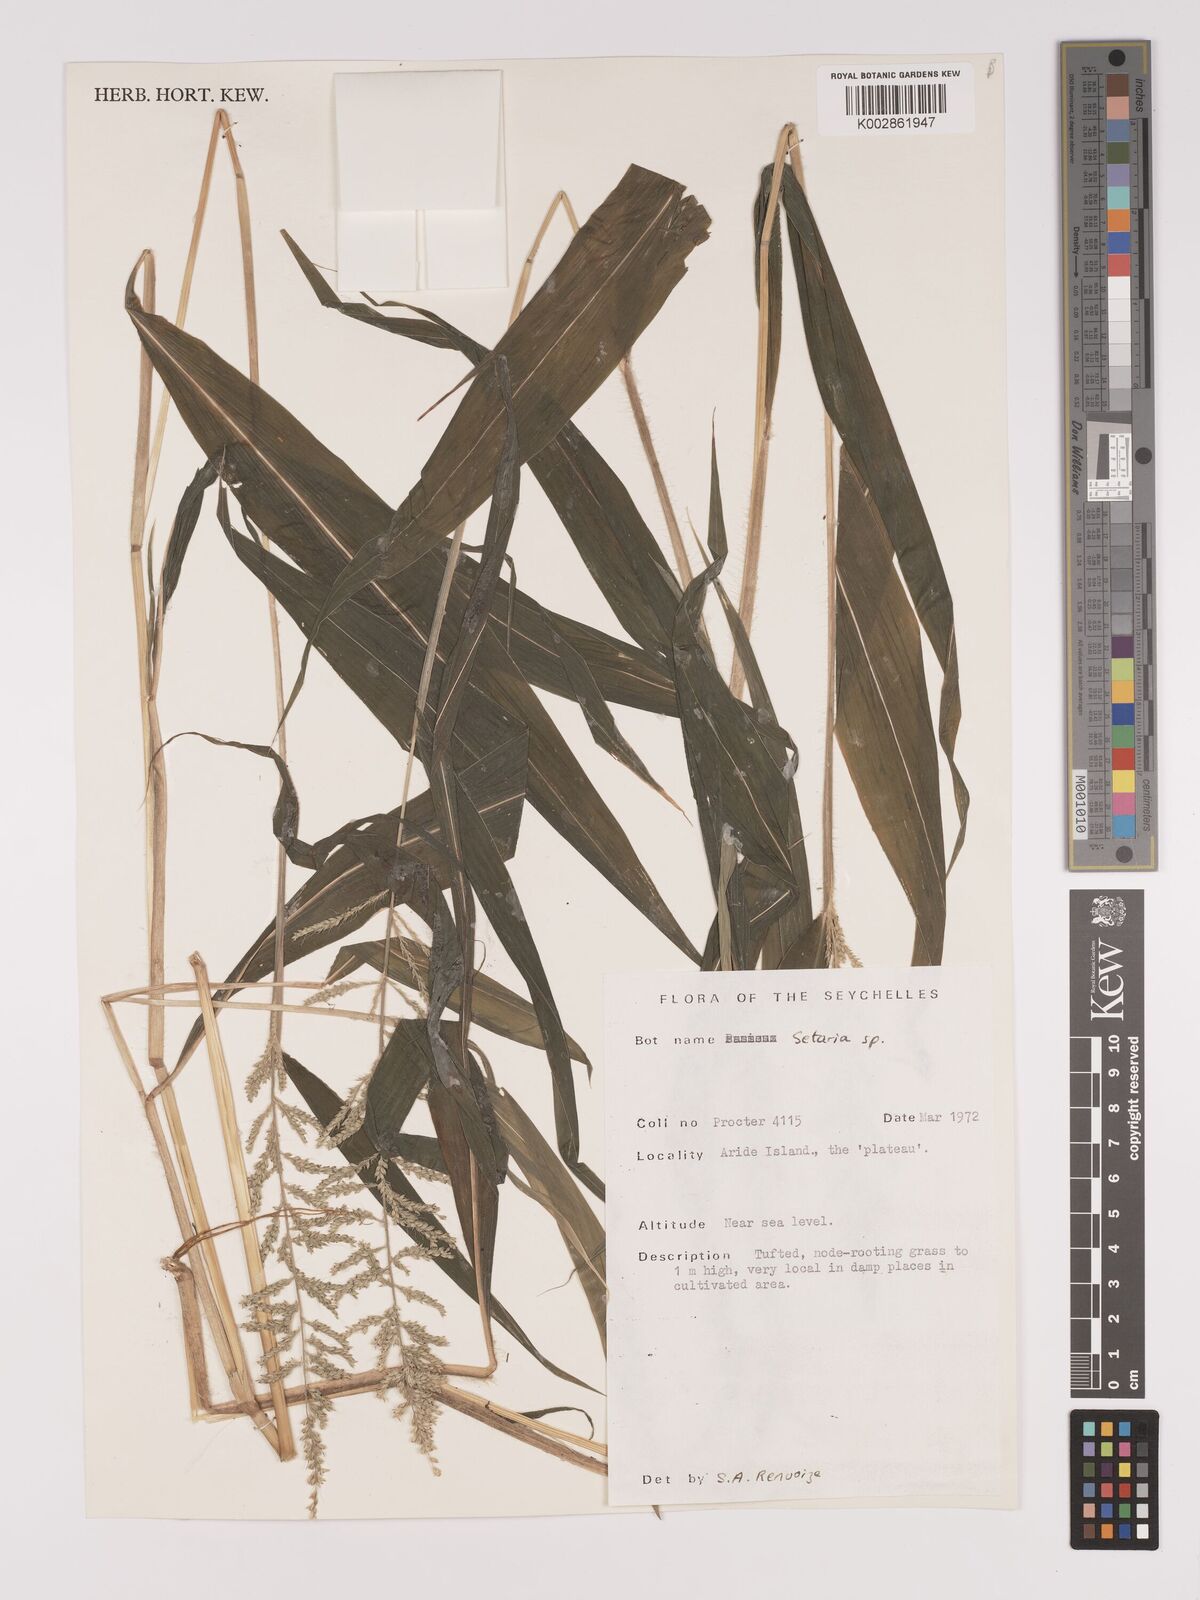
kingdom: Plantae
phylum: Tracheophyta
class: Liliopsida
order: Poales
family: Poaceae
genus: Setaria
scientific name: Setaria barbata
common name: East indian bristlegrass
